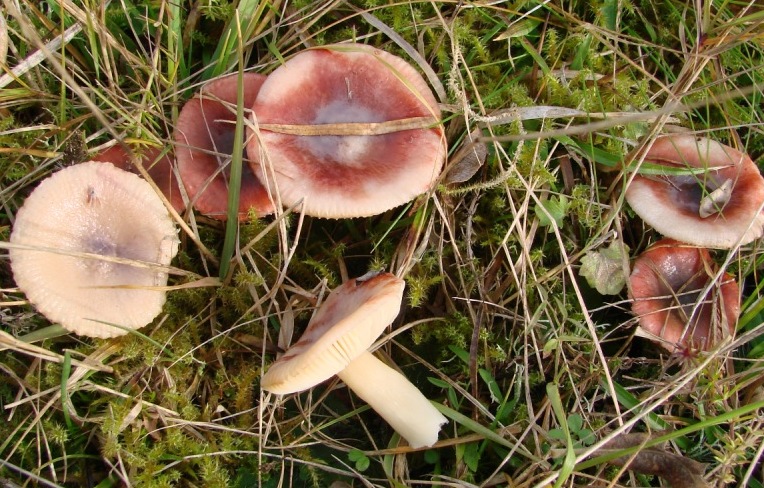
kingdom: Fungi
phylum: Basidiomycota
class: Agaricomycetes
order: Russulales
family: Russulaceae
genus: Russula
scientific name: Russula laccata
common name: klit-skørhat
